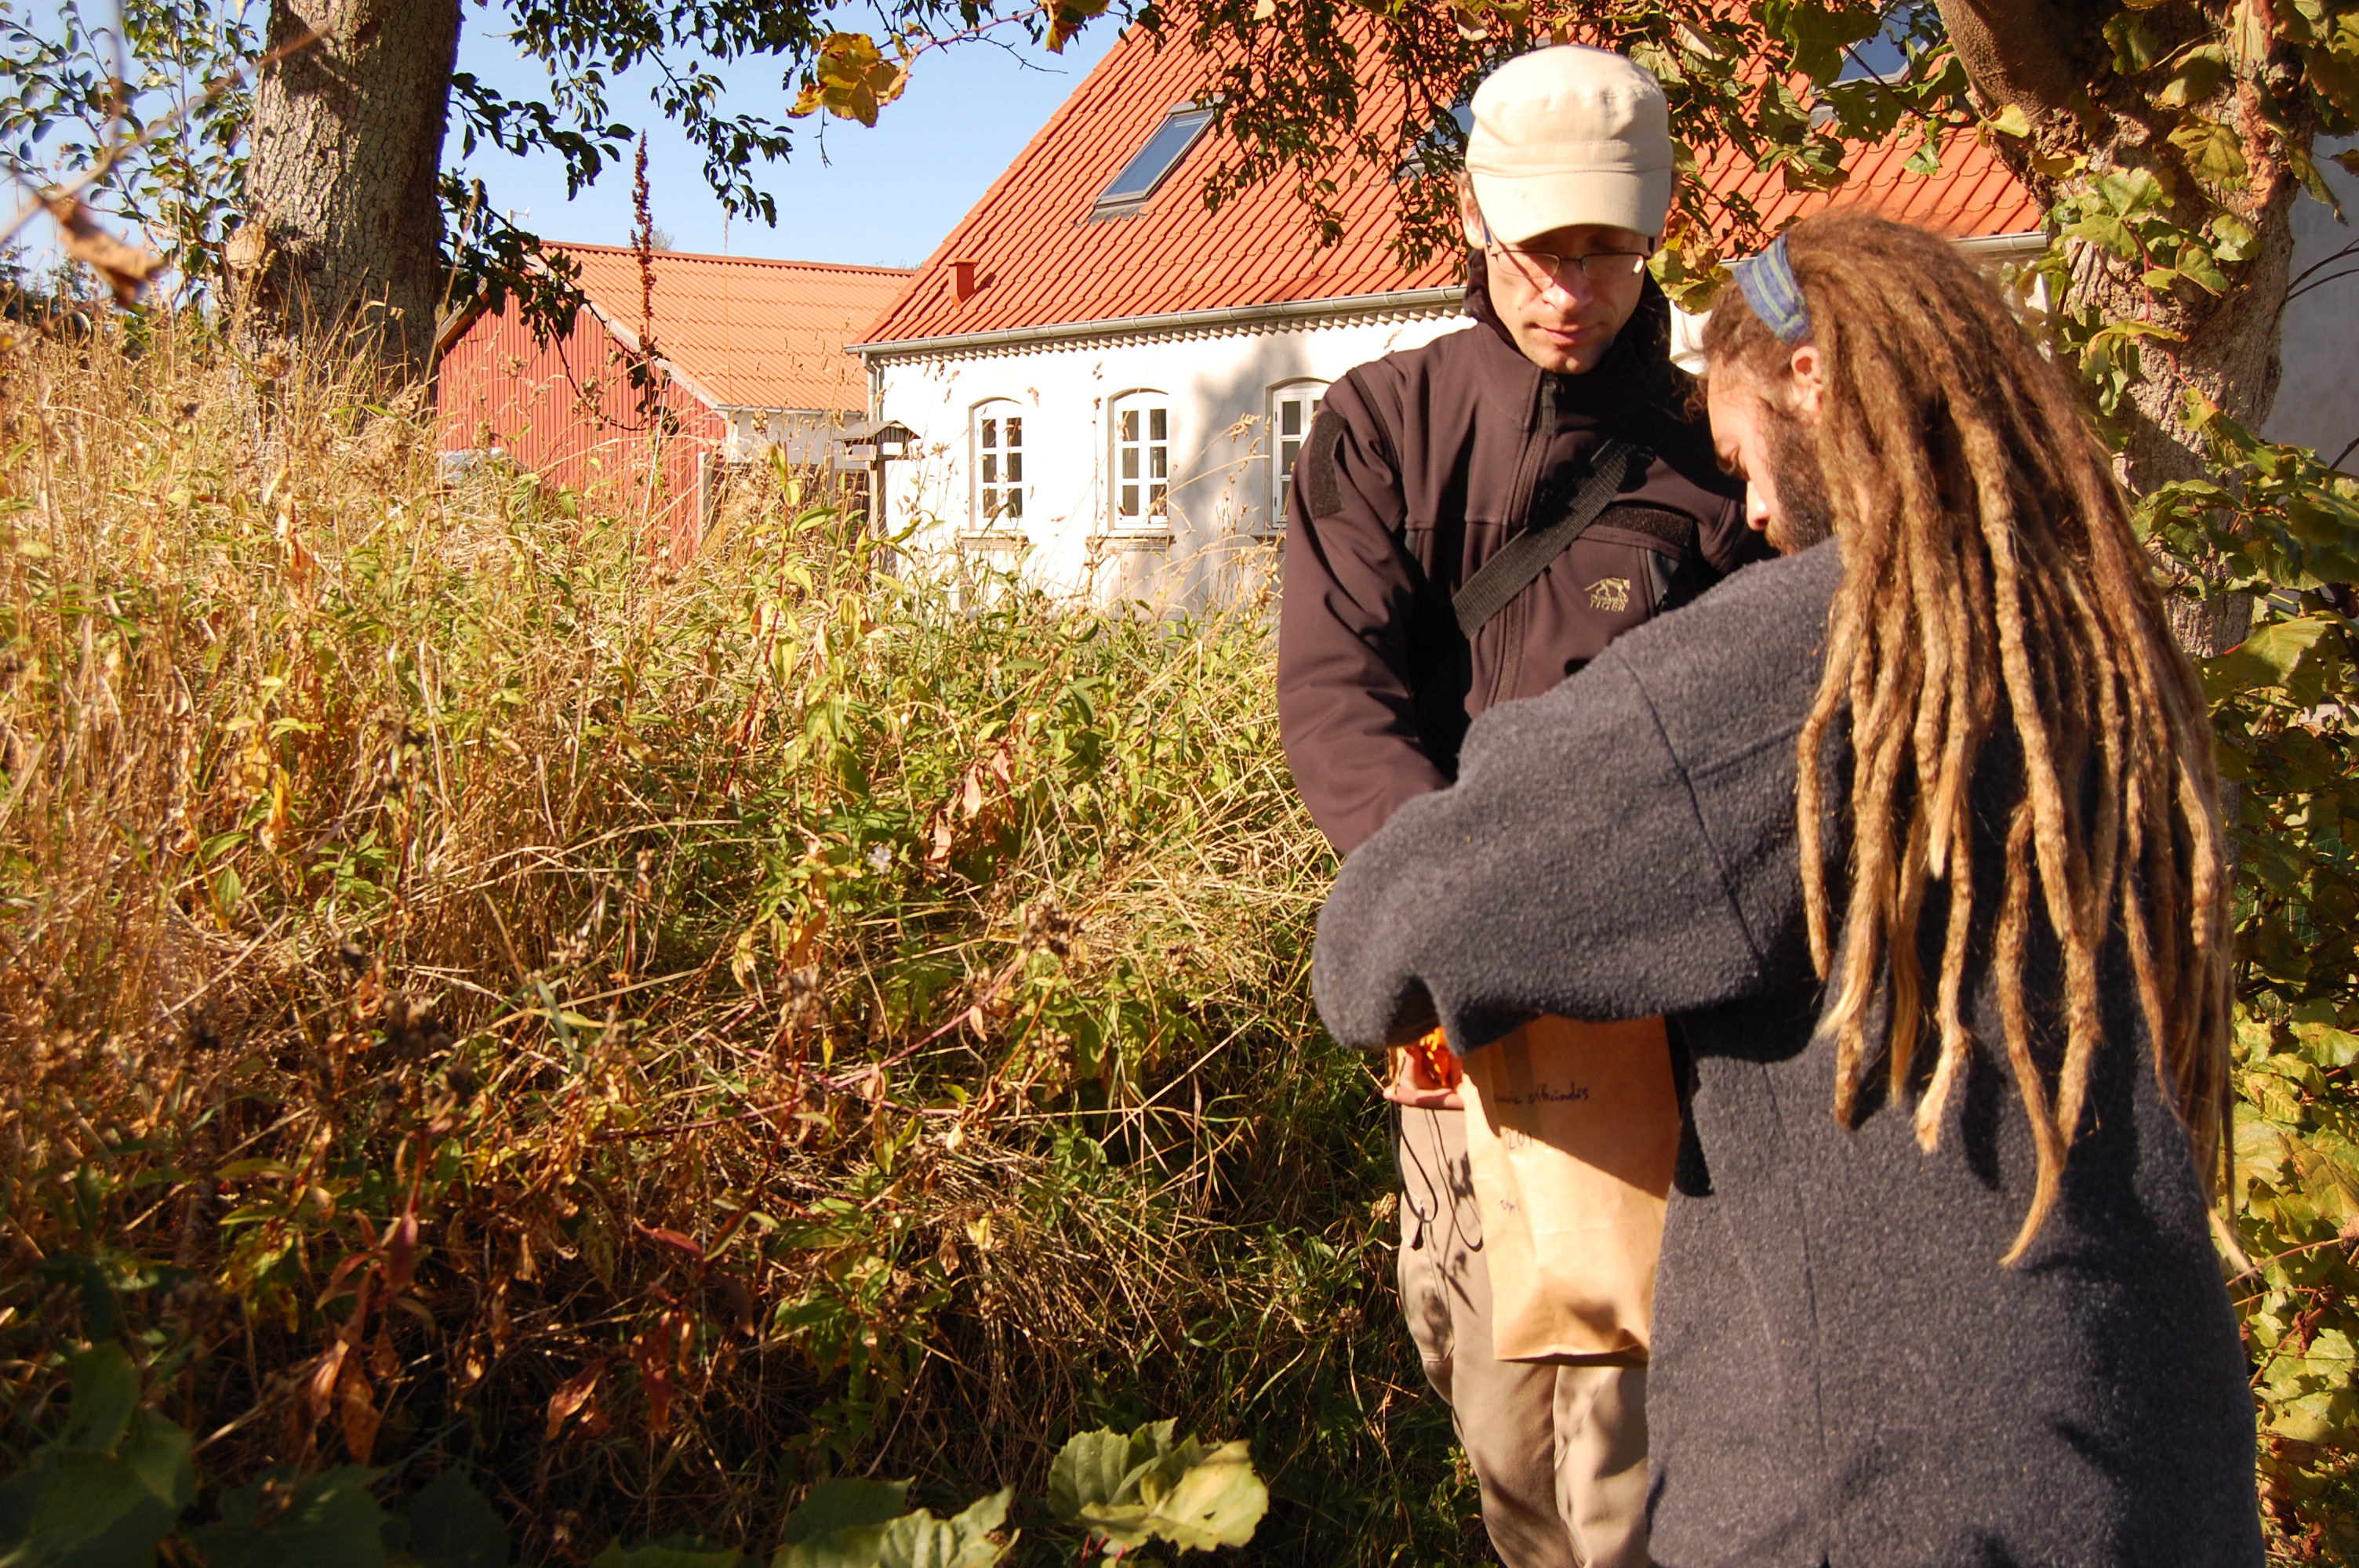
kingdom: Plantae
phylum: Tracheophyta
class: Magnoliopsida
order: Caryophyllales
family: Caryophyllaceae
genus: Saponaria
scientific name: Saponaria officinalis
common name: Soapwort
